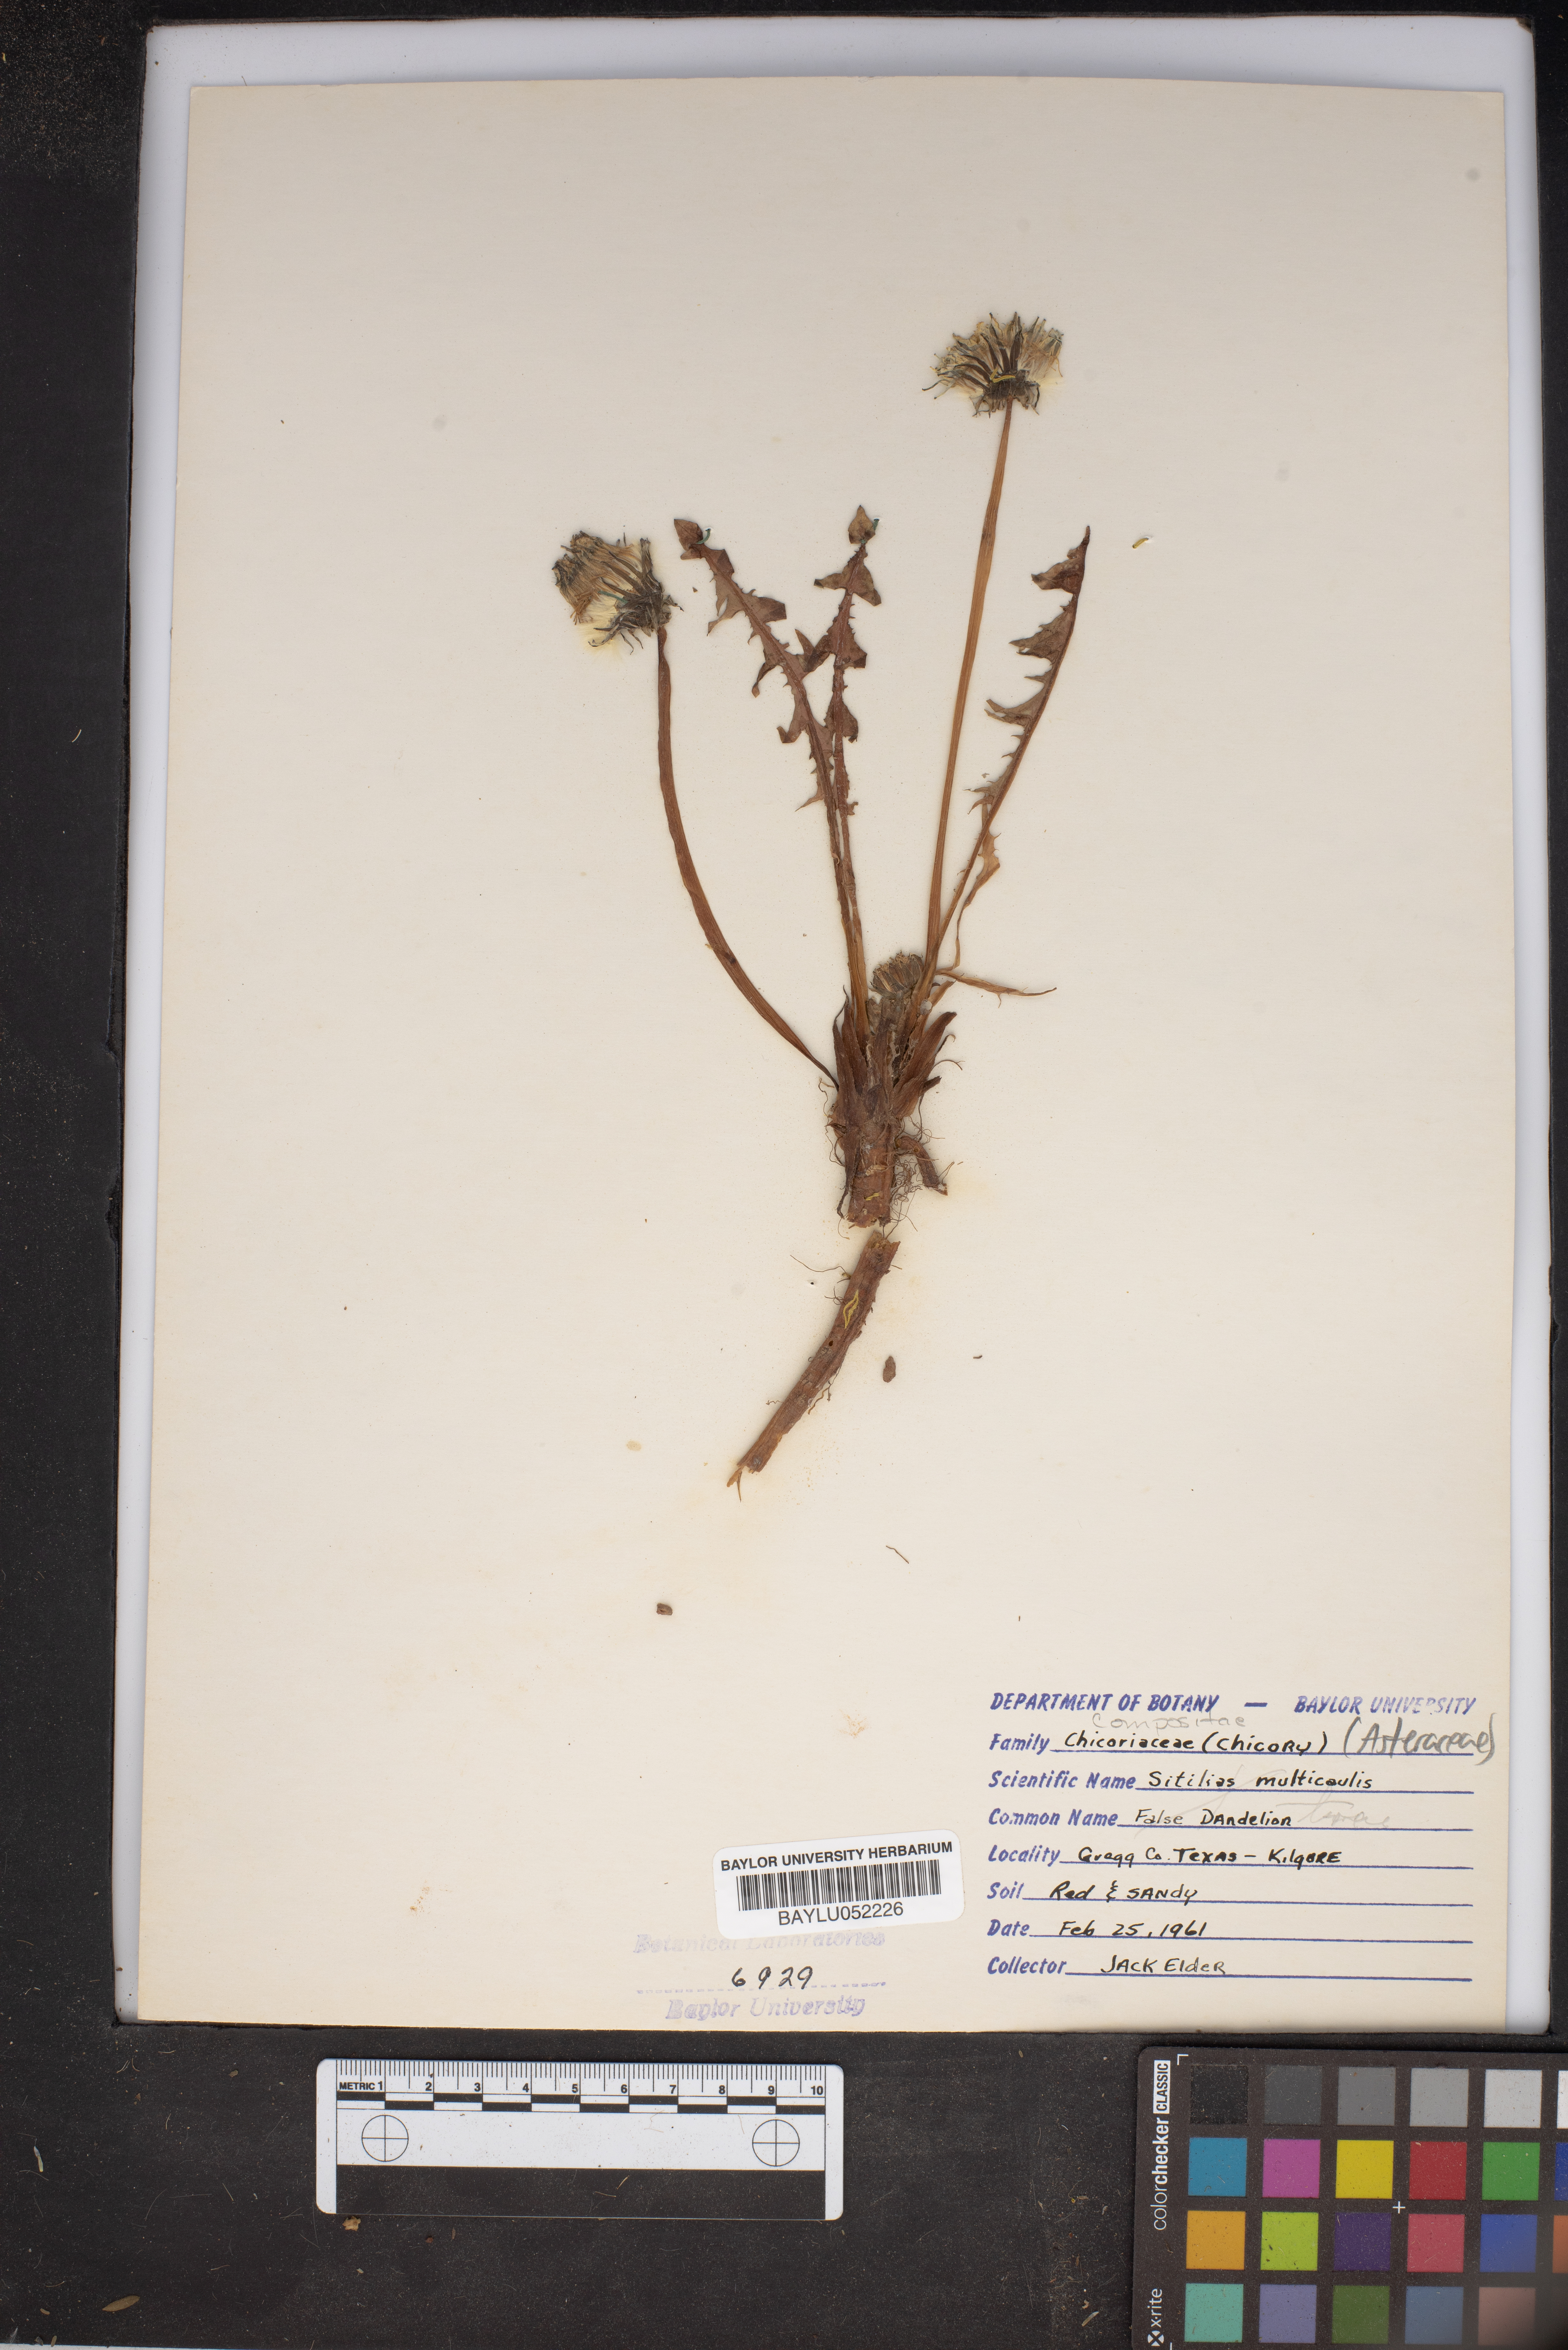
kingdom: Plantae
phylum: Tracheophyta
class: Magnoliopsida
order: Asterales
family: Asteraceae
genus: Pyrrhopappus
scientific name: Pyrrhopappus pauciflorus
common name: Texas false dandelion
